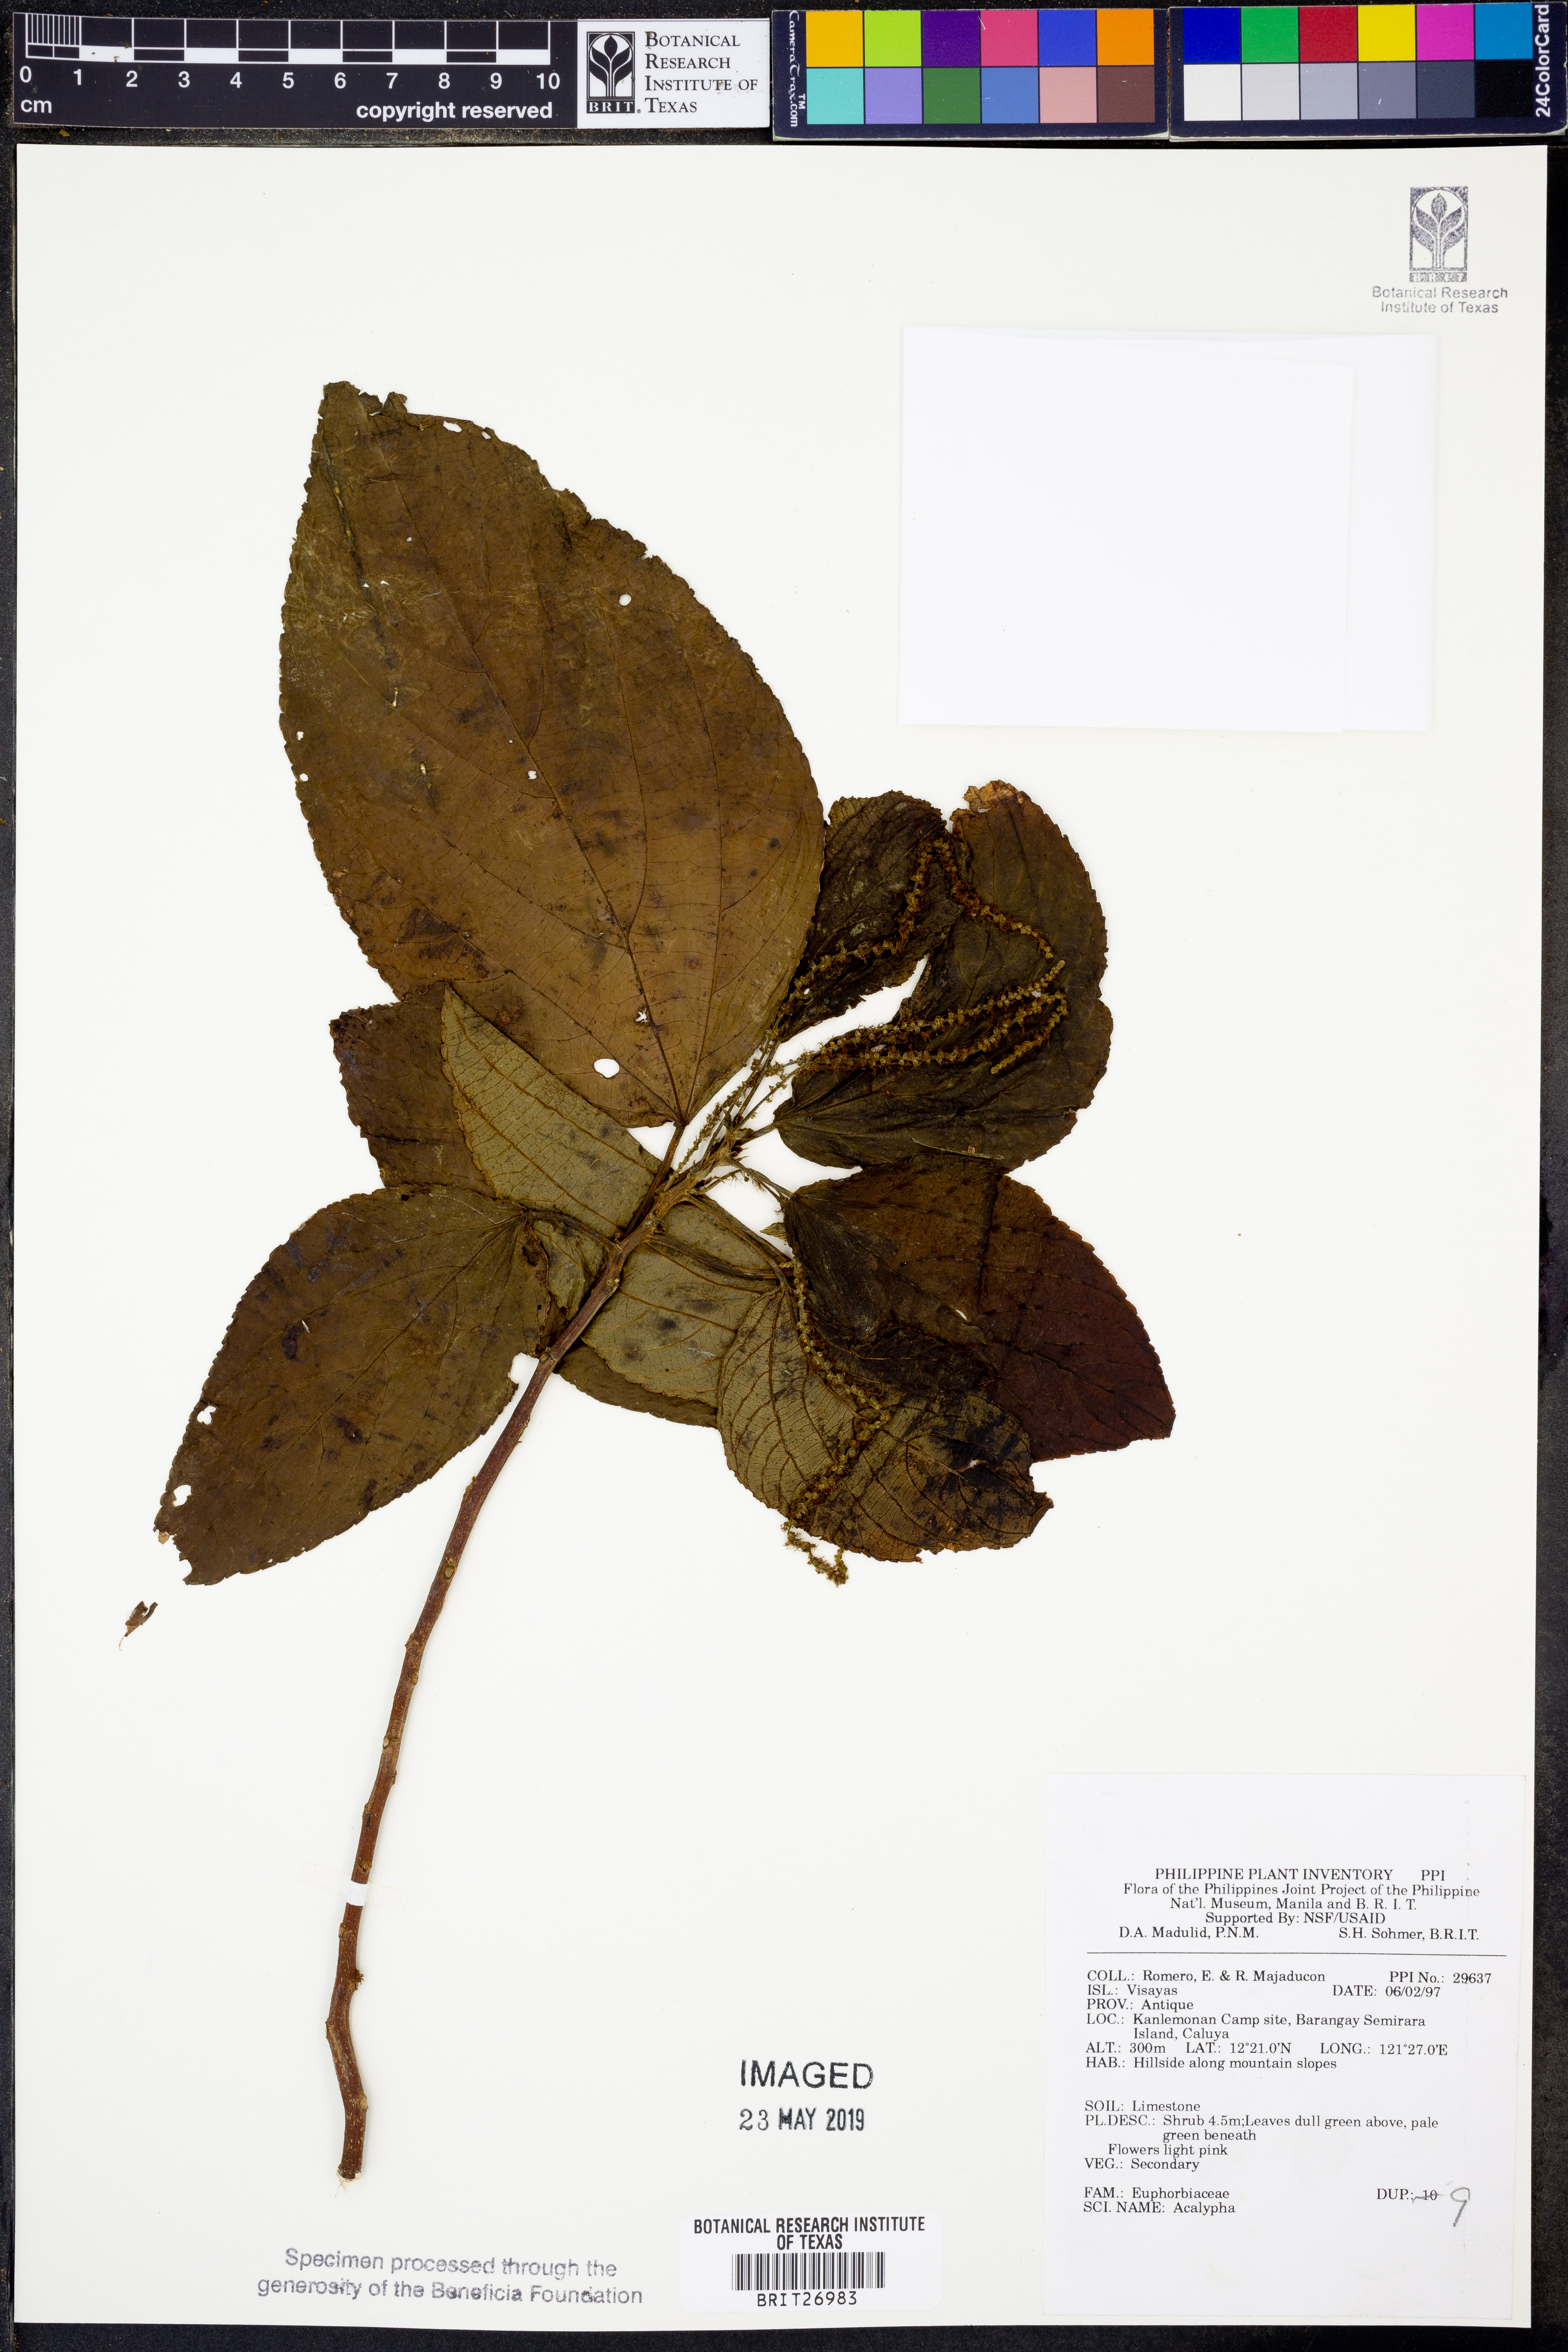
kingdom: Plantae
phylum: Tracheophyta
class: Magnoliopsida
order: Malpighiales
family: Euphorbiaceae
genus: Acalypha
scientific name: Acalypha
